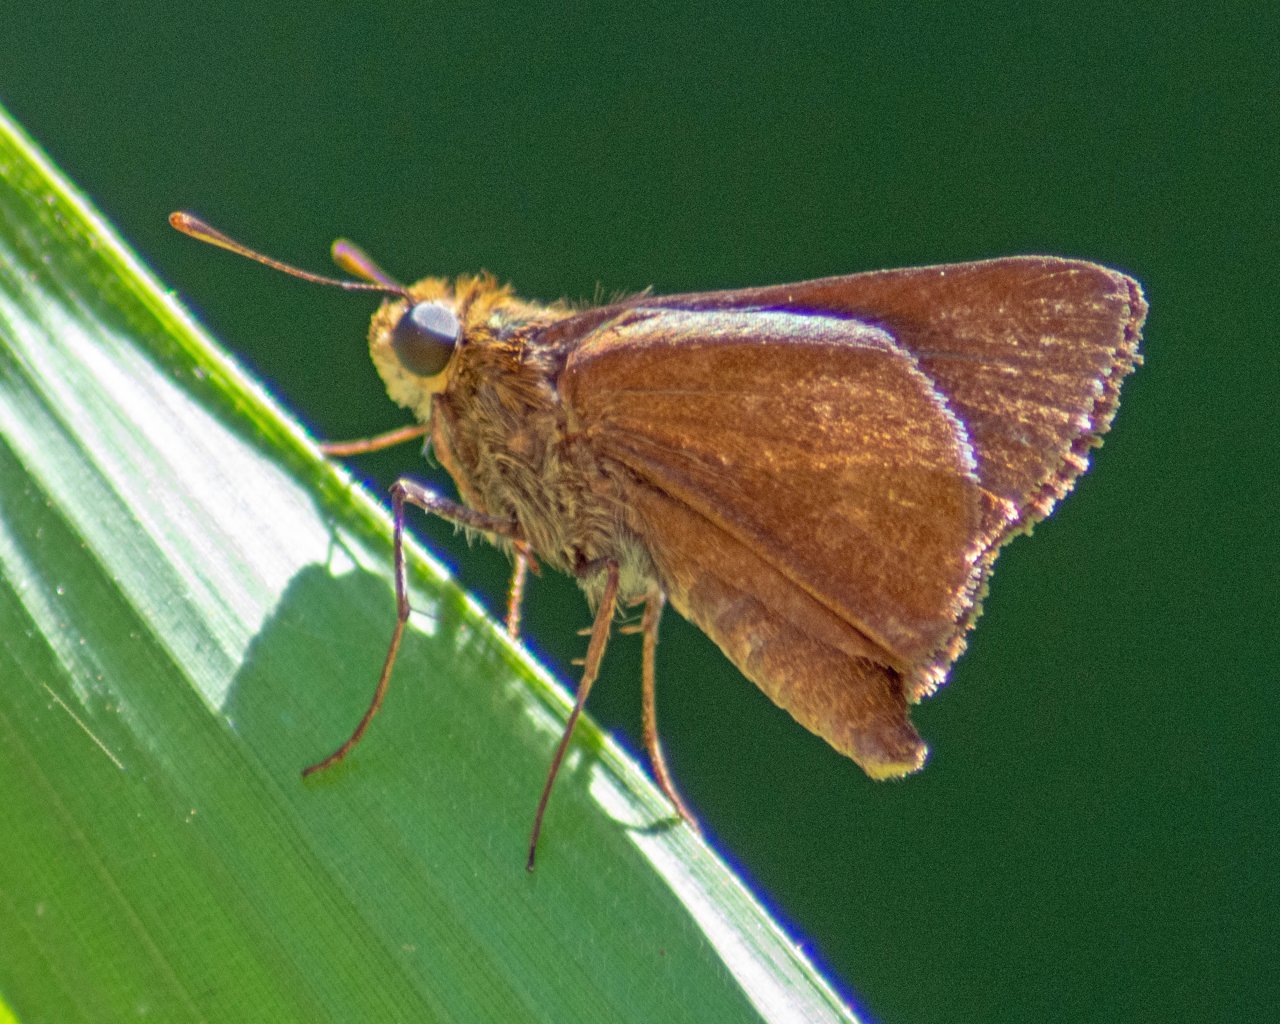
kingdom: Animalia
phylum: Arthropoda
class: Insecta
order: Lepidoptera
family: Hesperiidae
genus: Euphyes
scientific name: Euphyes vestris
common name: Dun Skipper
